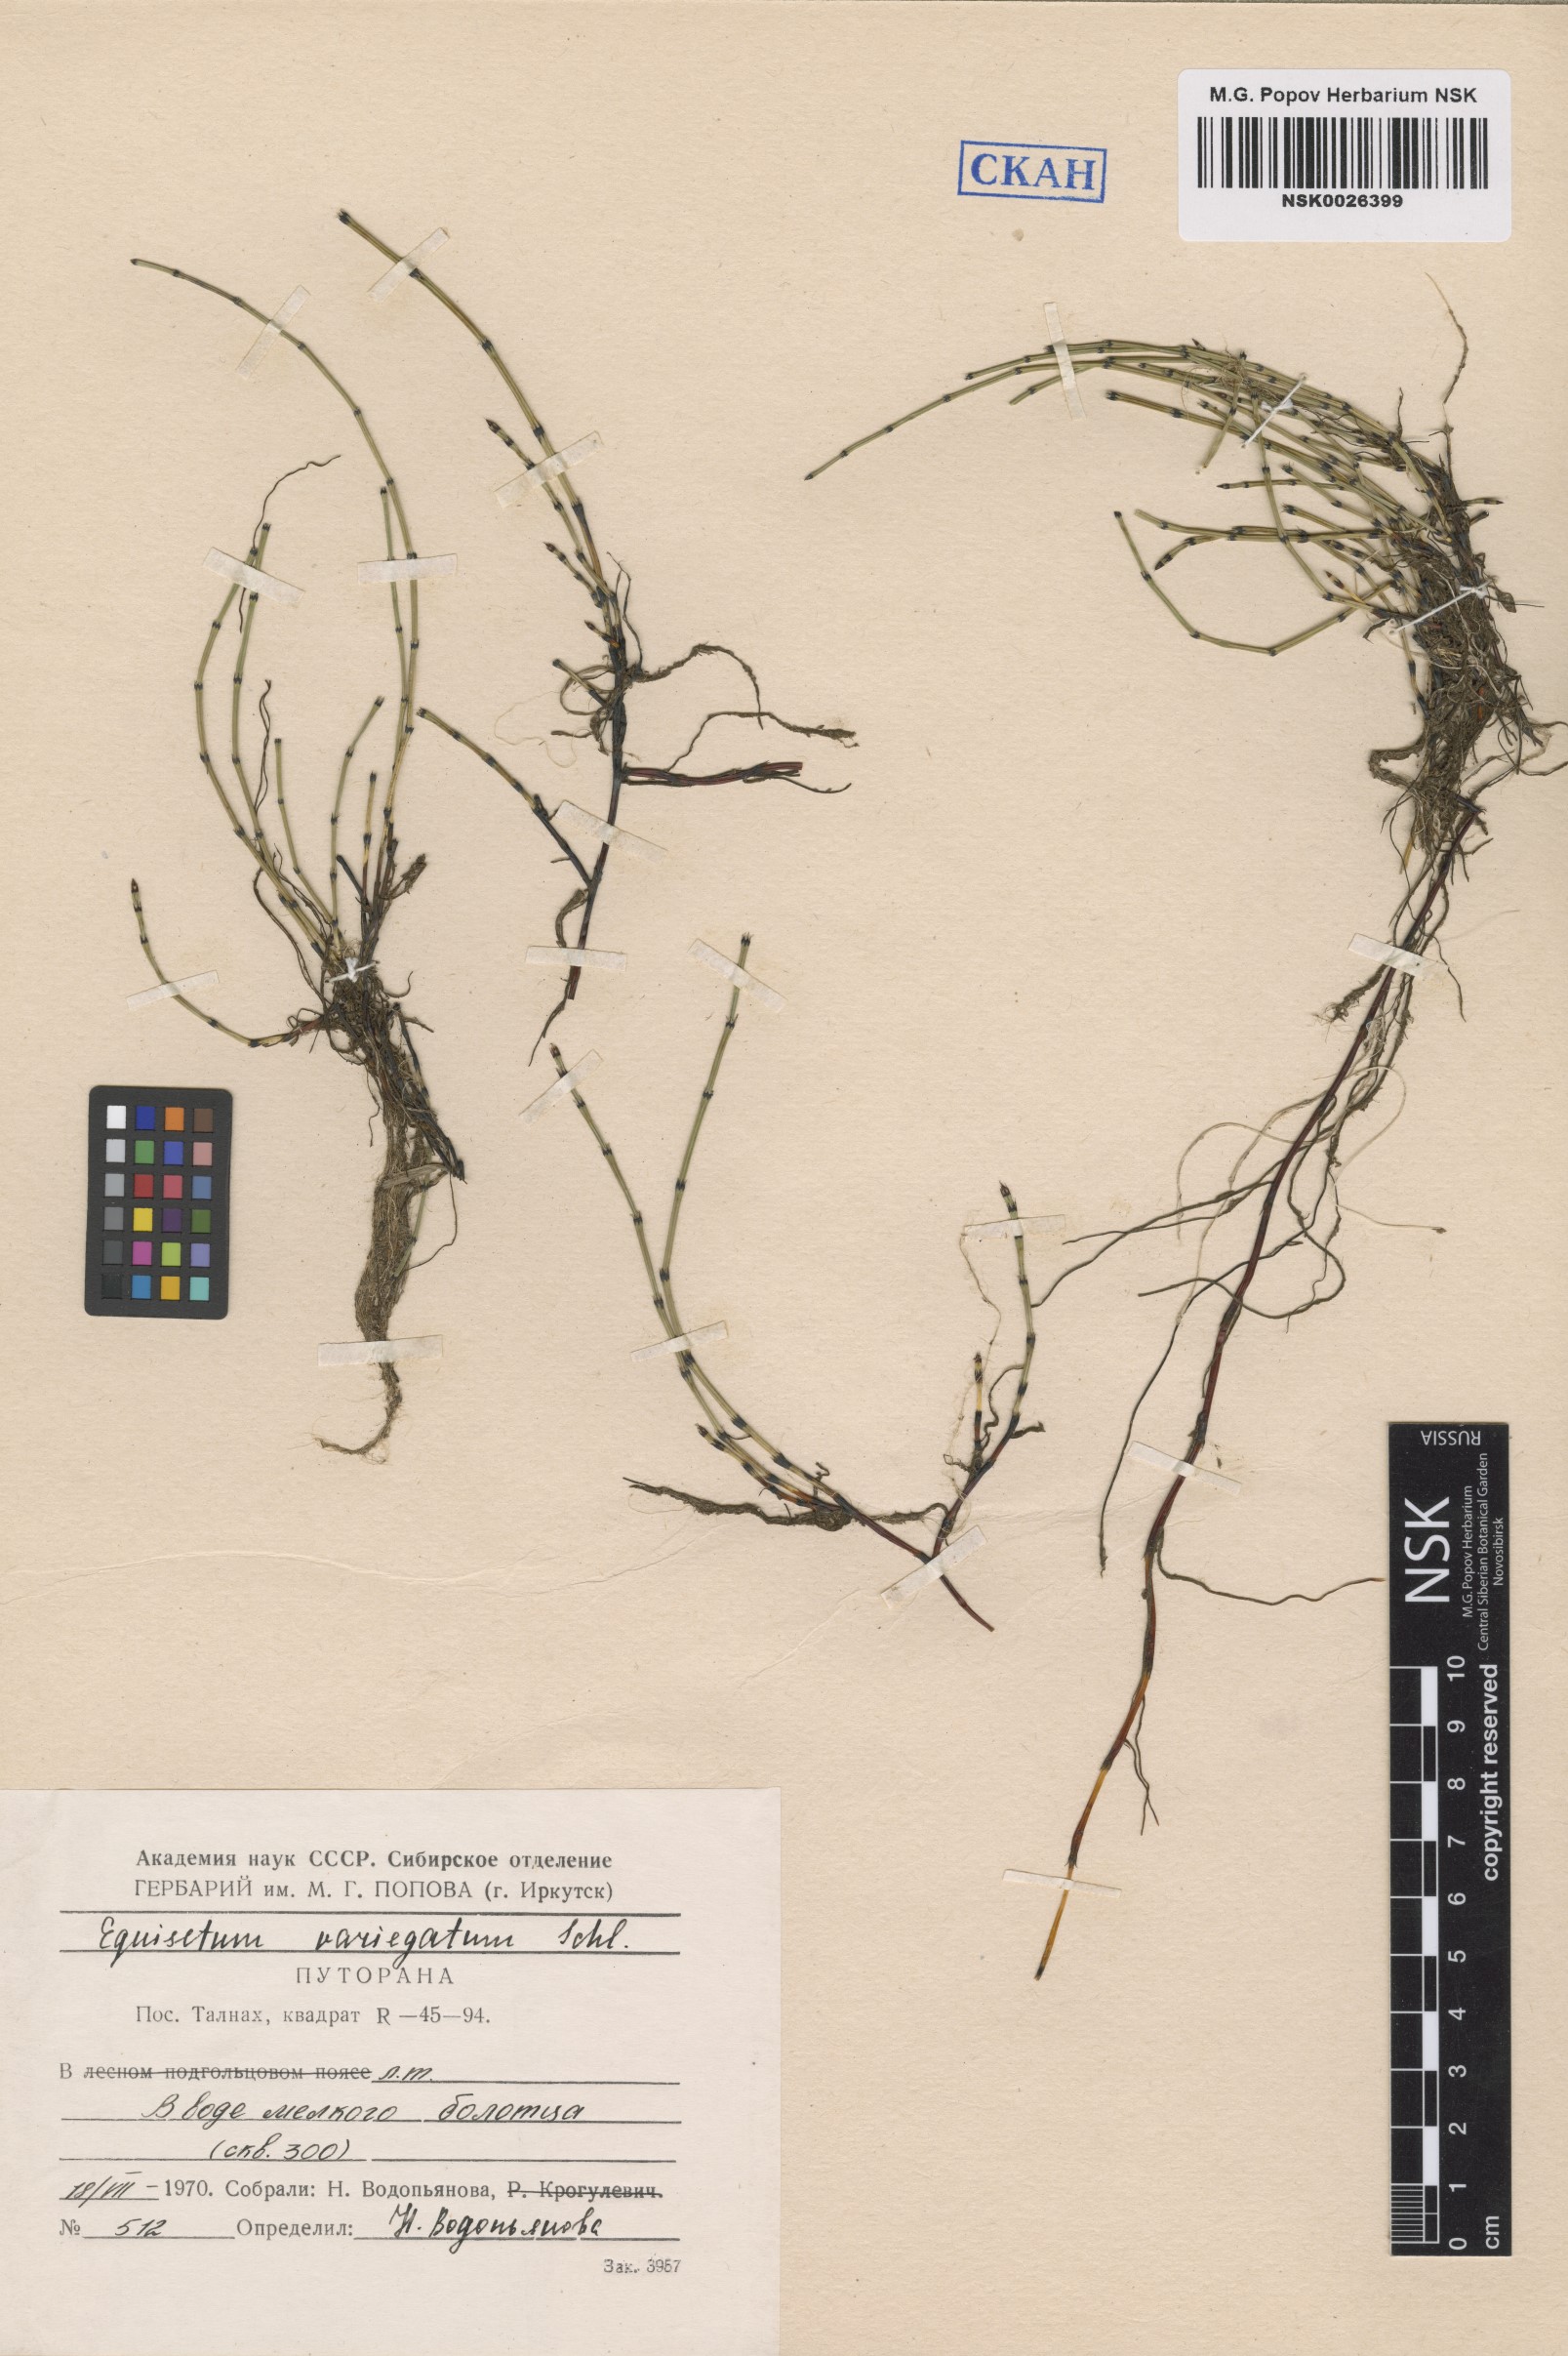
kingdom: Plantae
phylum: Tracheophyta
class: Polypodiopsida
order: Equisetales
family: Equisetaceae
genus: Equisetum
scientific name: Equisetum variegatum
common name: Variegated horsetail
